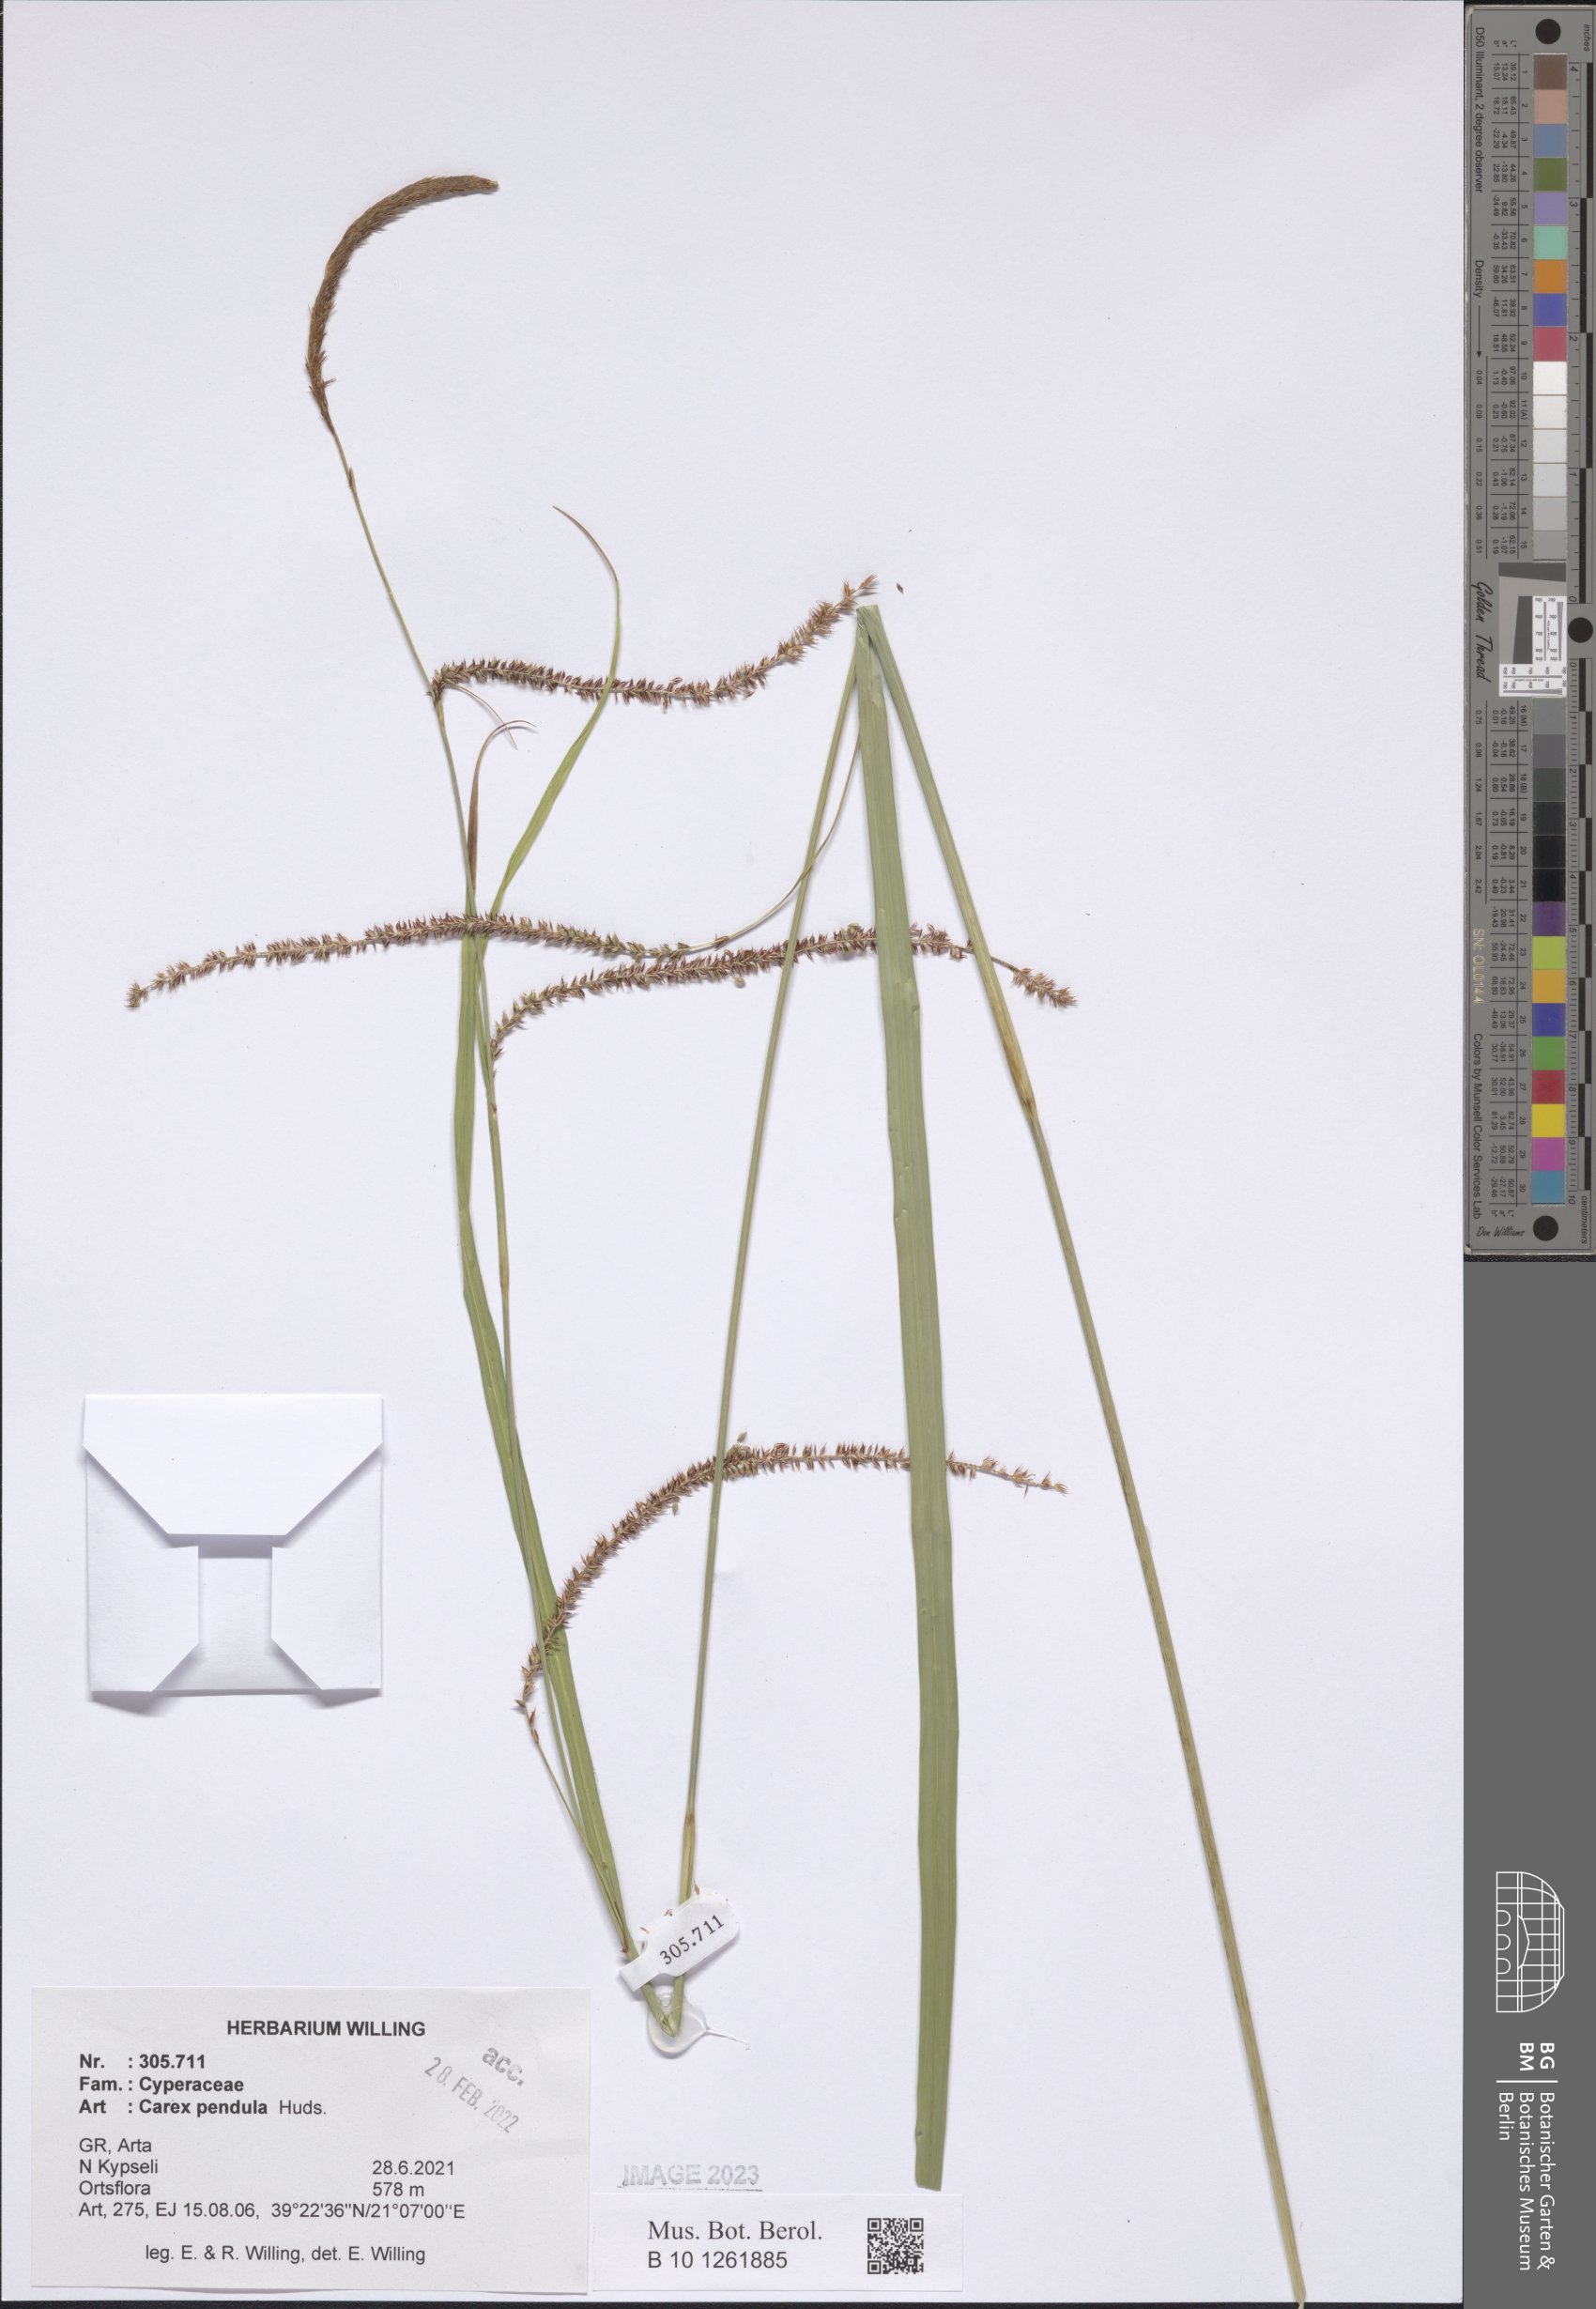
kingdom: Plantae
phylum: Tracheophyta
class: Liliopsida
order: Poales
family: Cyperaceae
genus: Carex
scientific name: Carex pendula
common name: Pendulous sedge
